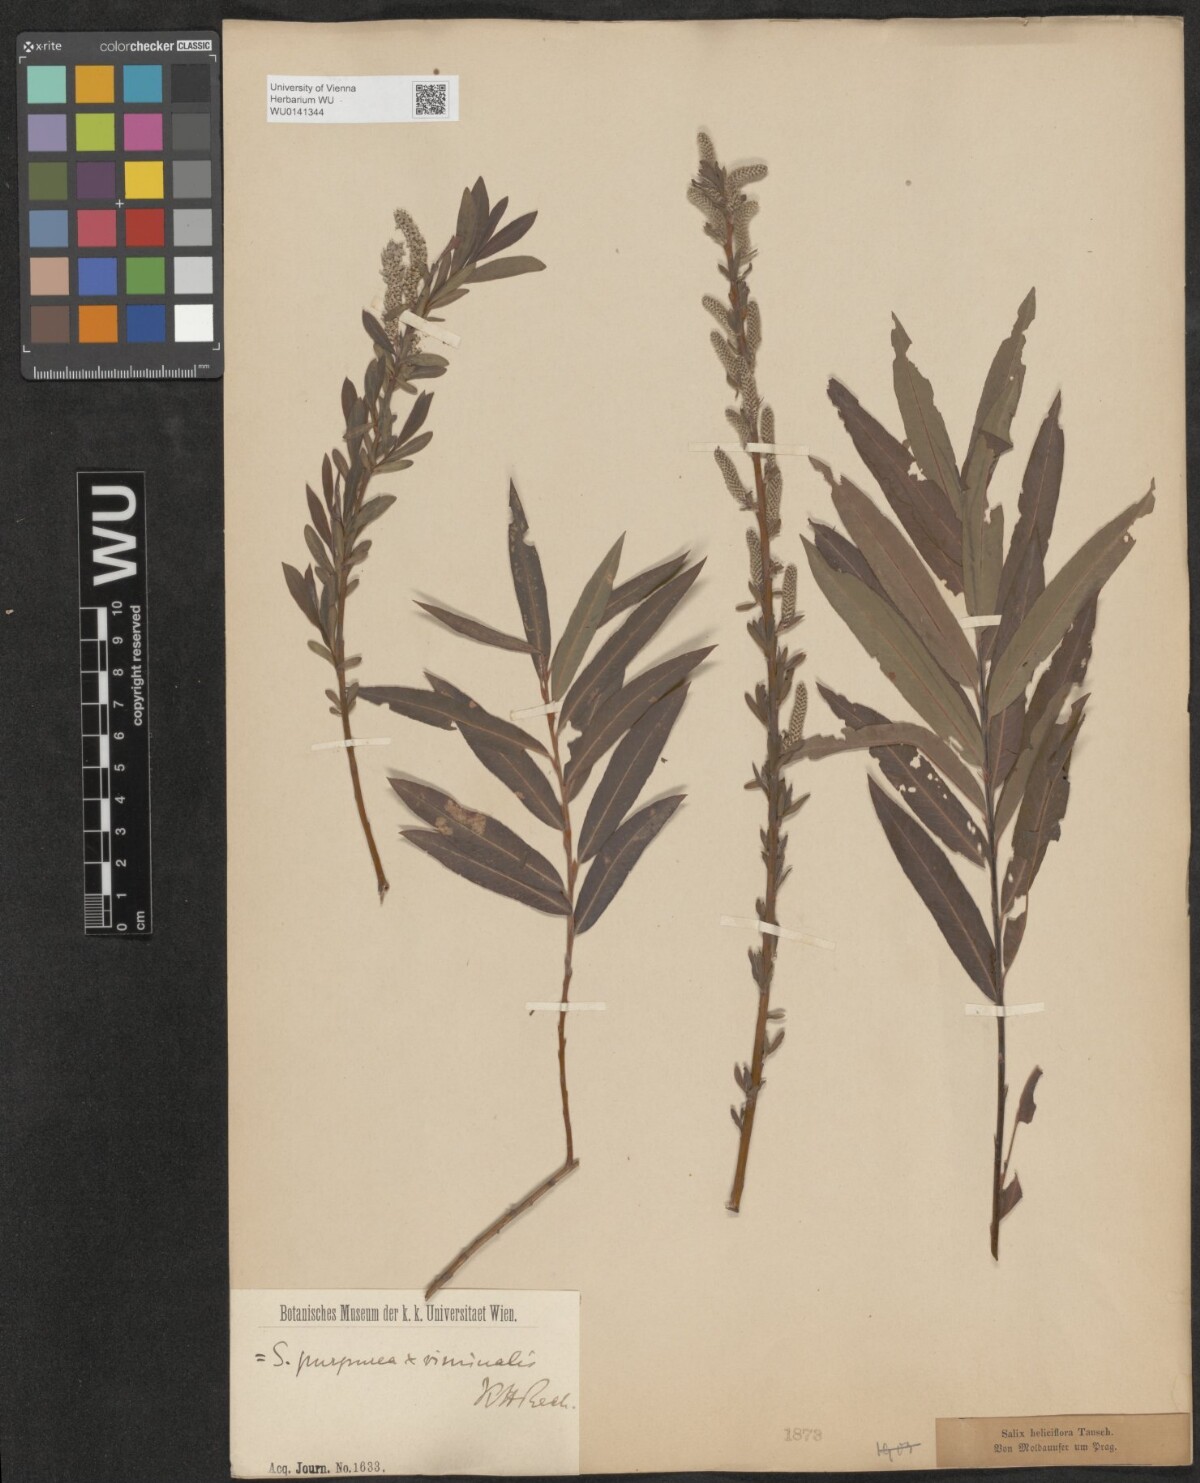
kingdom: Plantae
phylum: Tracheophyta
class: Magnoliopsida
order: Malpighiales
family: Salicaceae
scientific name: Salicaceae
